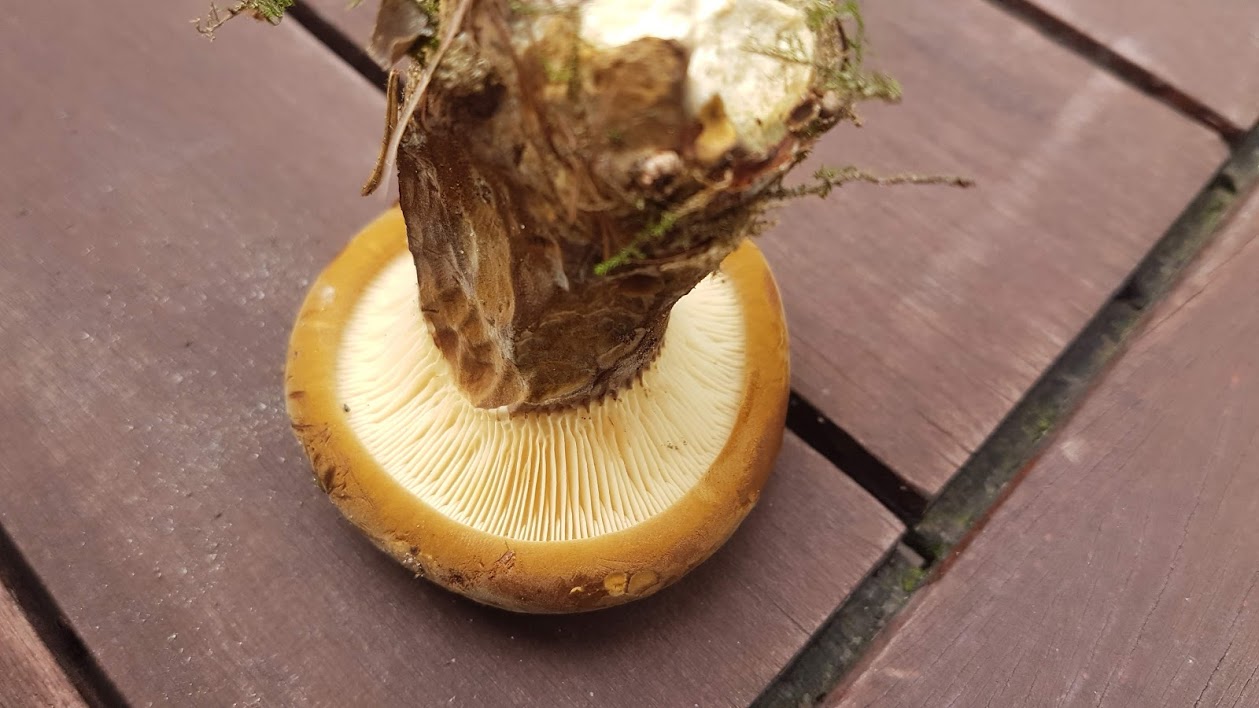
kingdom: Fungi
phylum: Basidiomycota
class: Agaricomycetes
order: Boletales
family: Tapinellaceae
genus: Tapinella
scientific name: Tapinella atrotomentosa
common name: sortfiltet viftesvamp
